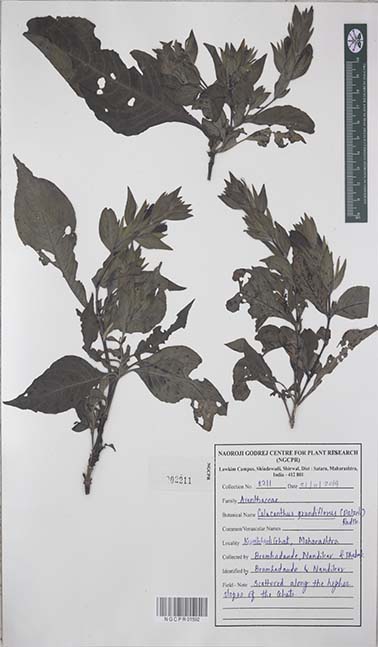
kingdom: Plantae
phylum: Tracheophyta
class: Magnoliopsida
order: Lamiales
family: Acanthaceae
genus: Calacanthus
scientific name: Calacanthus grandiflorus
